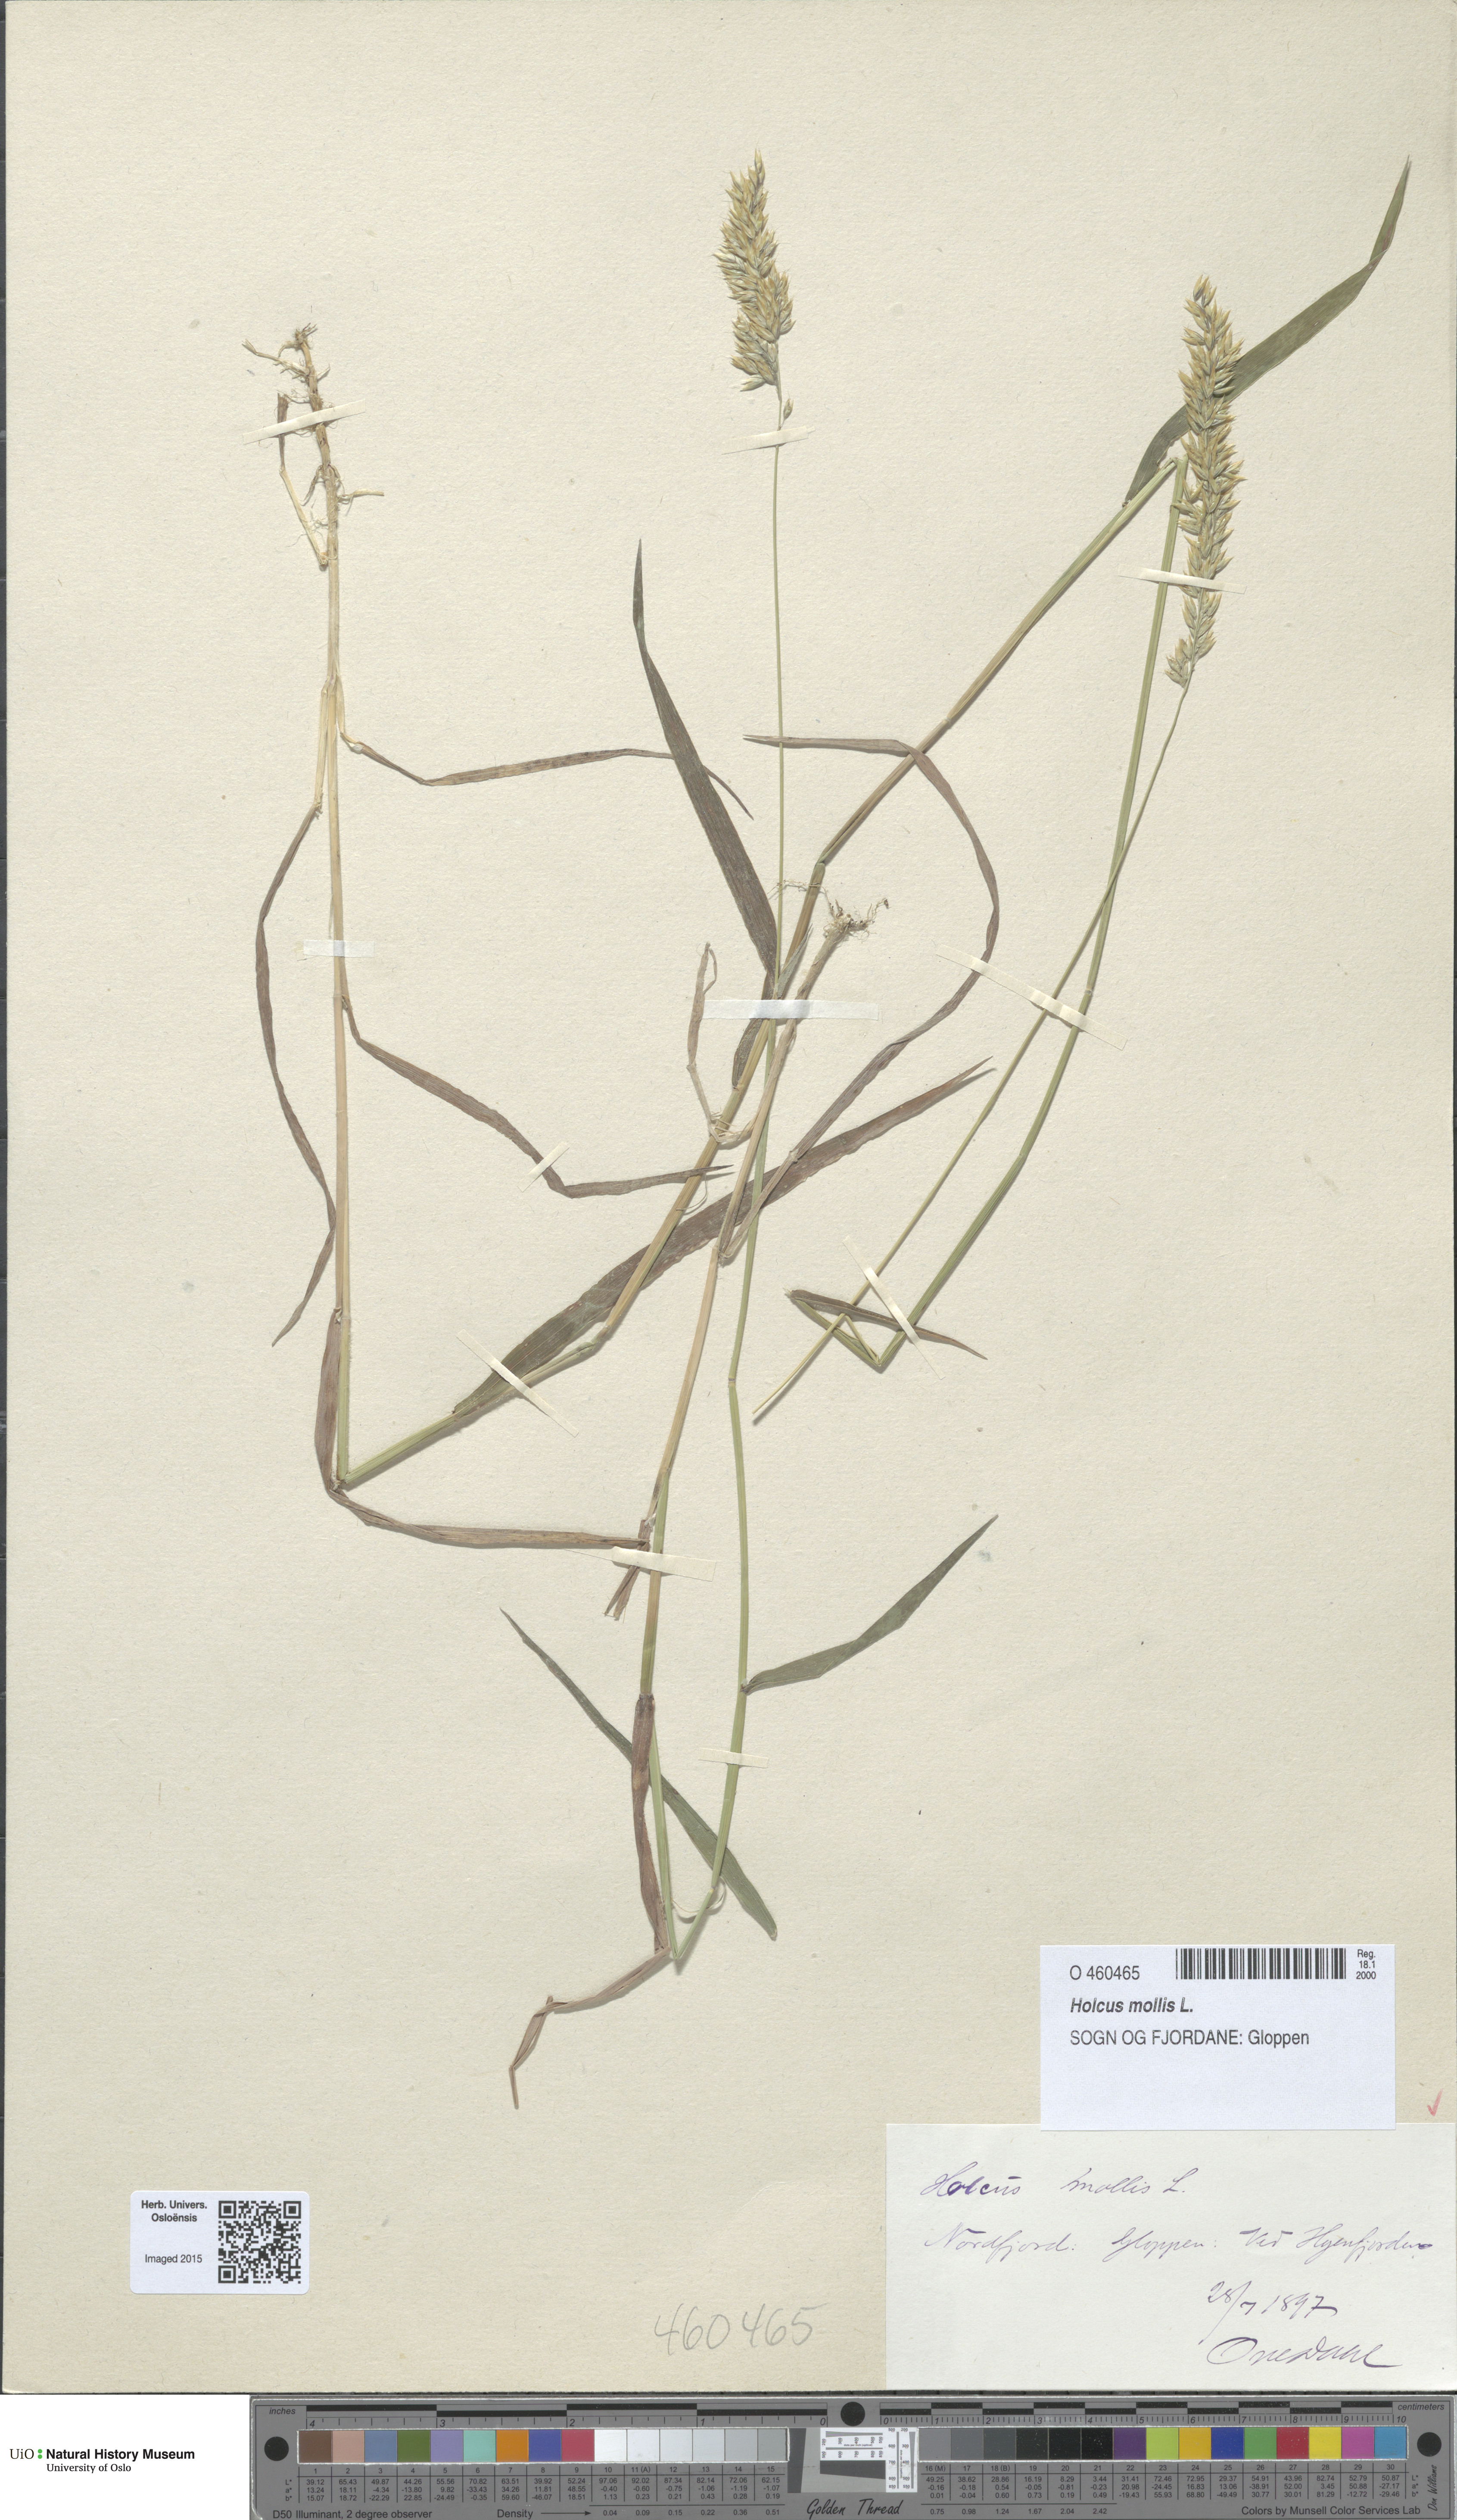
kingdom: Plantae
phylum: Tracheophyta
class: Liliopsida
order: Poales
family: Poaceae
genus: Holcus
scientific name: Holcus mollis
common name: Creeping velvetgrass
